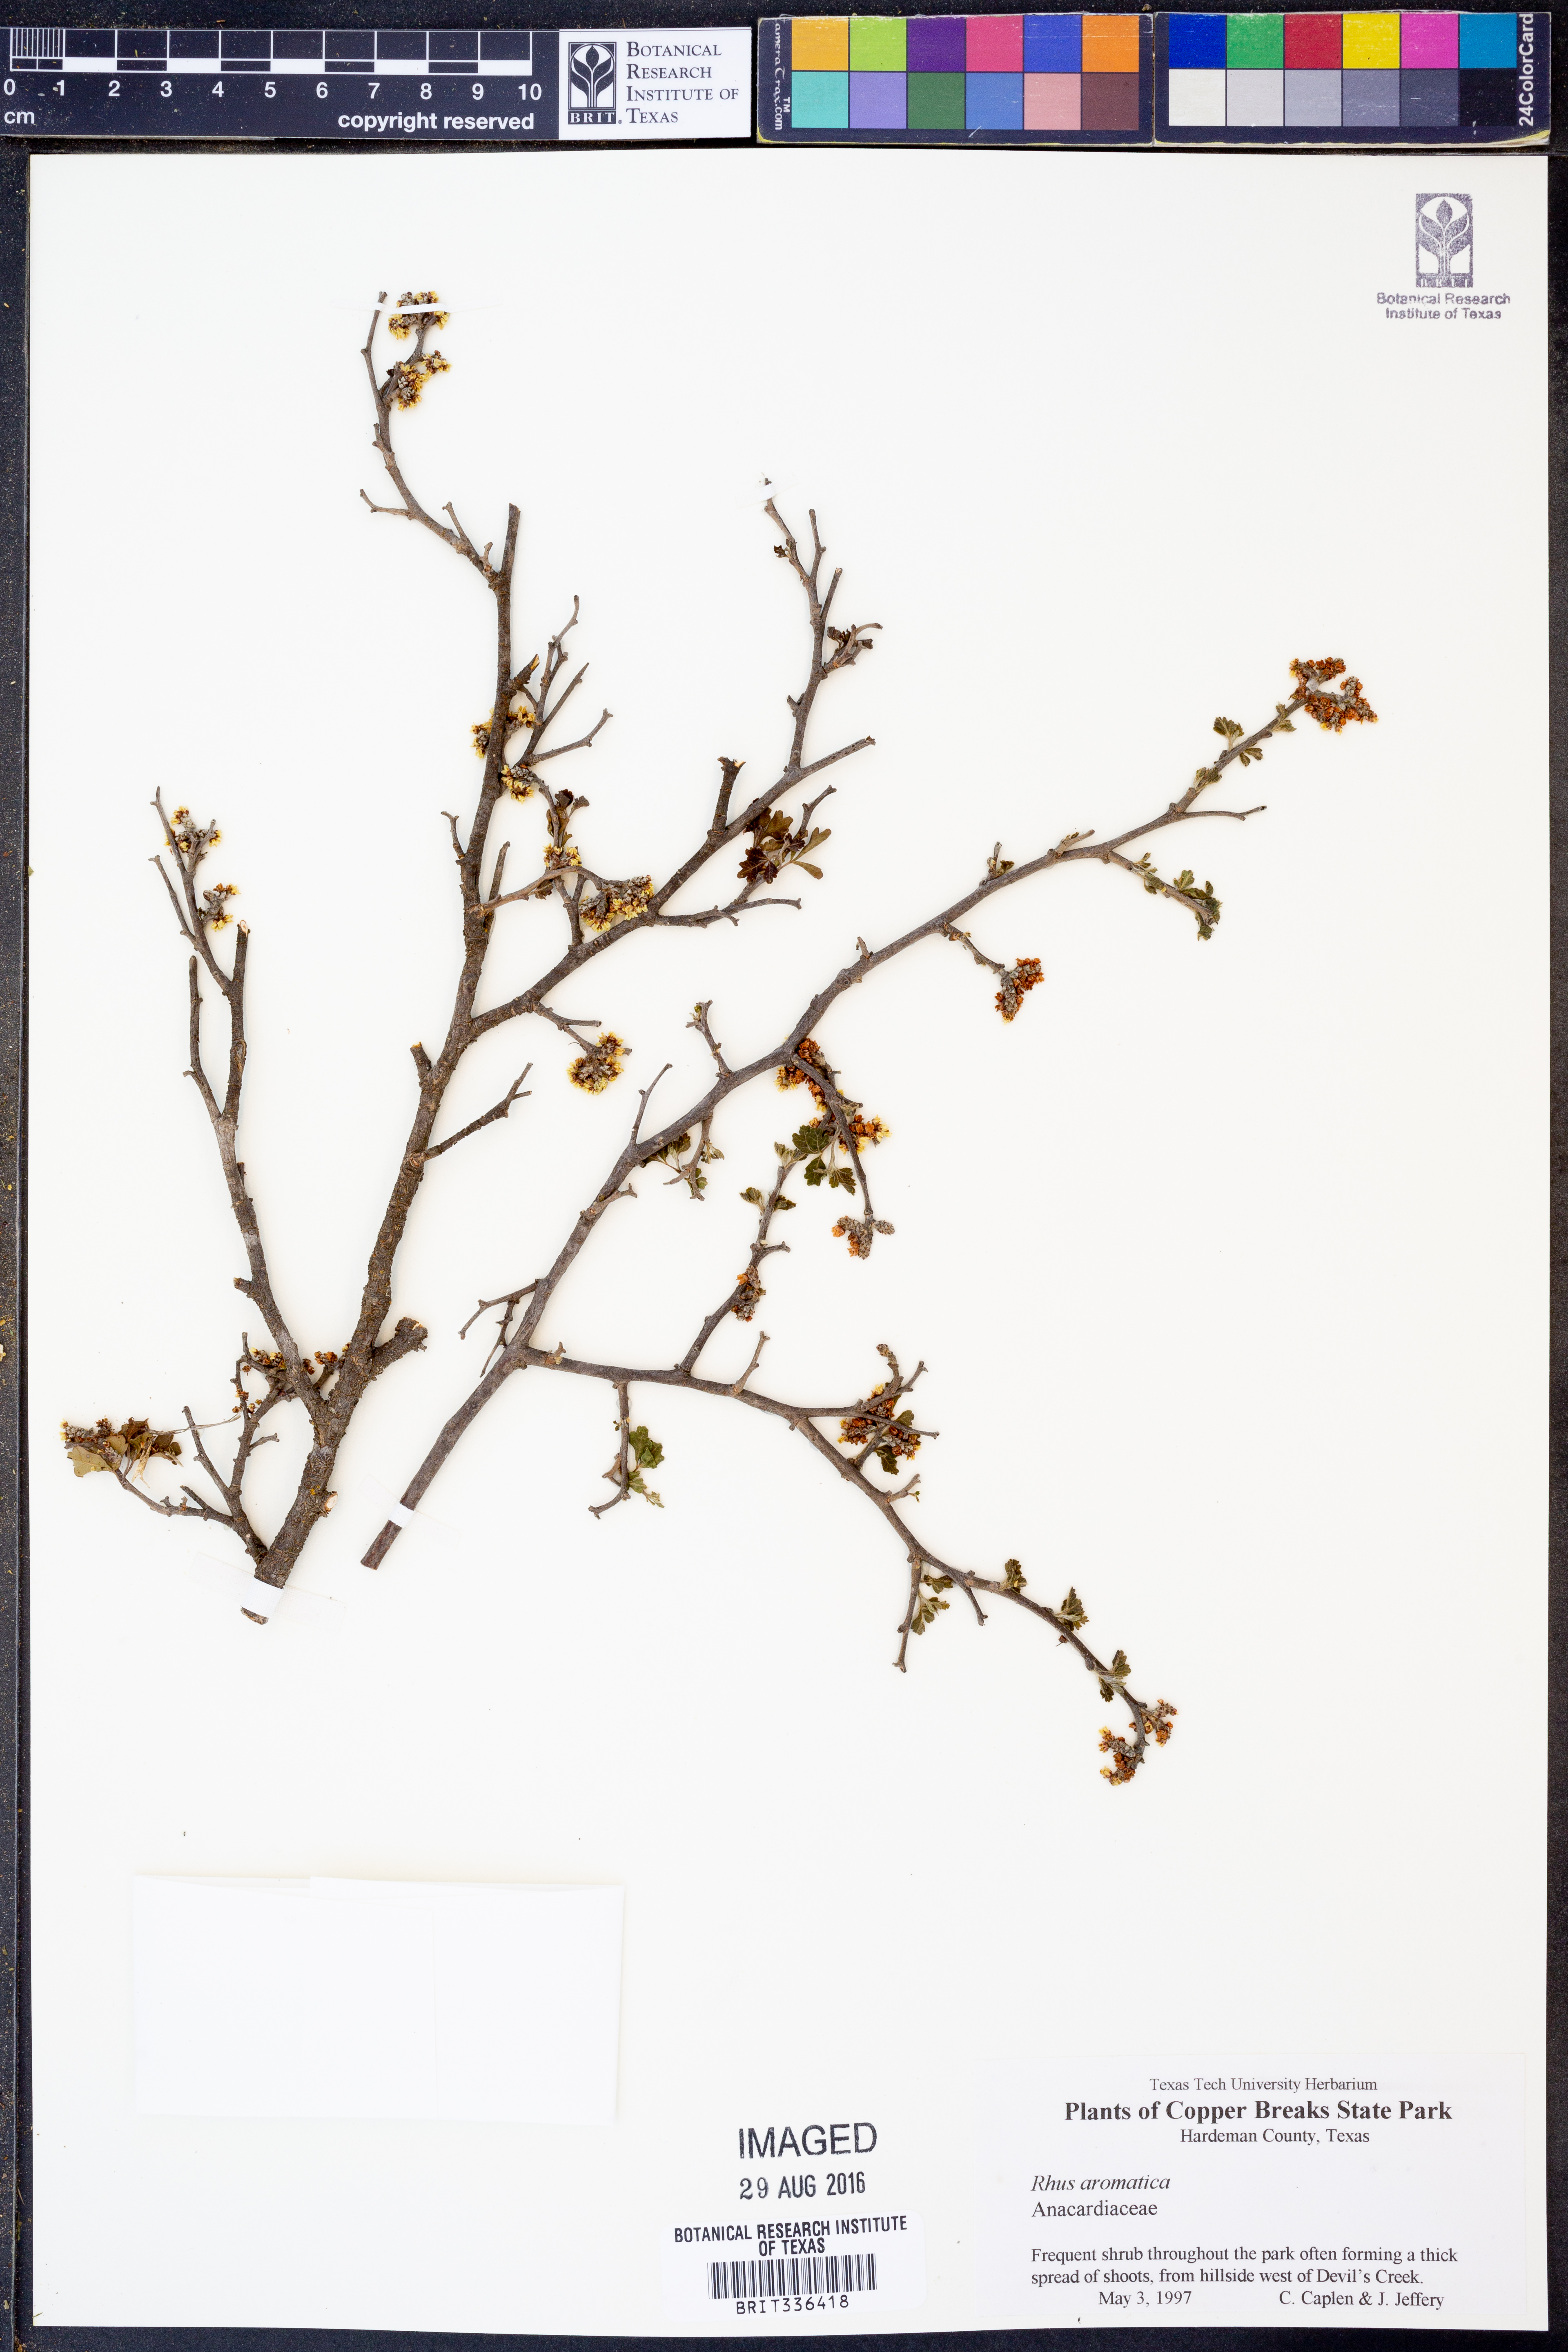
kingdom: Plantae
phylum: Tracheophyta
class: Magnoliopsida
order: Sapindales
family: Anacardiaceae
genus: Rhus
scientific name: Rhus aromatica
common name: Aromatic sumac
